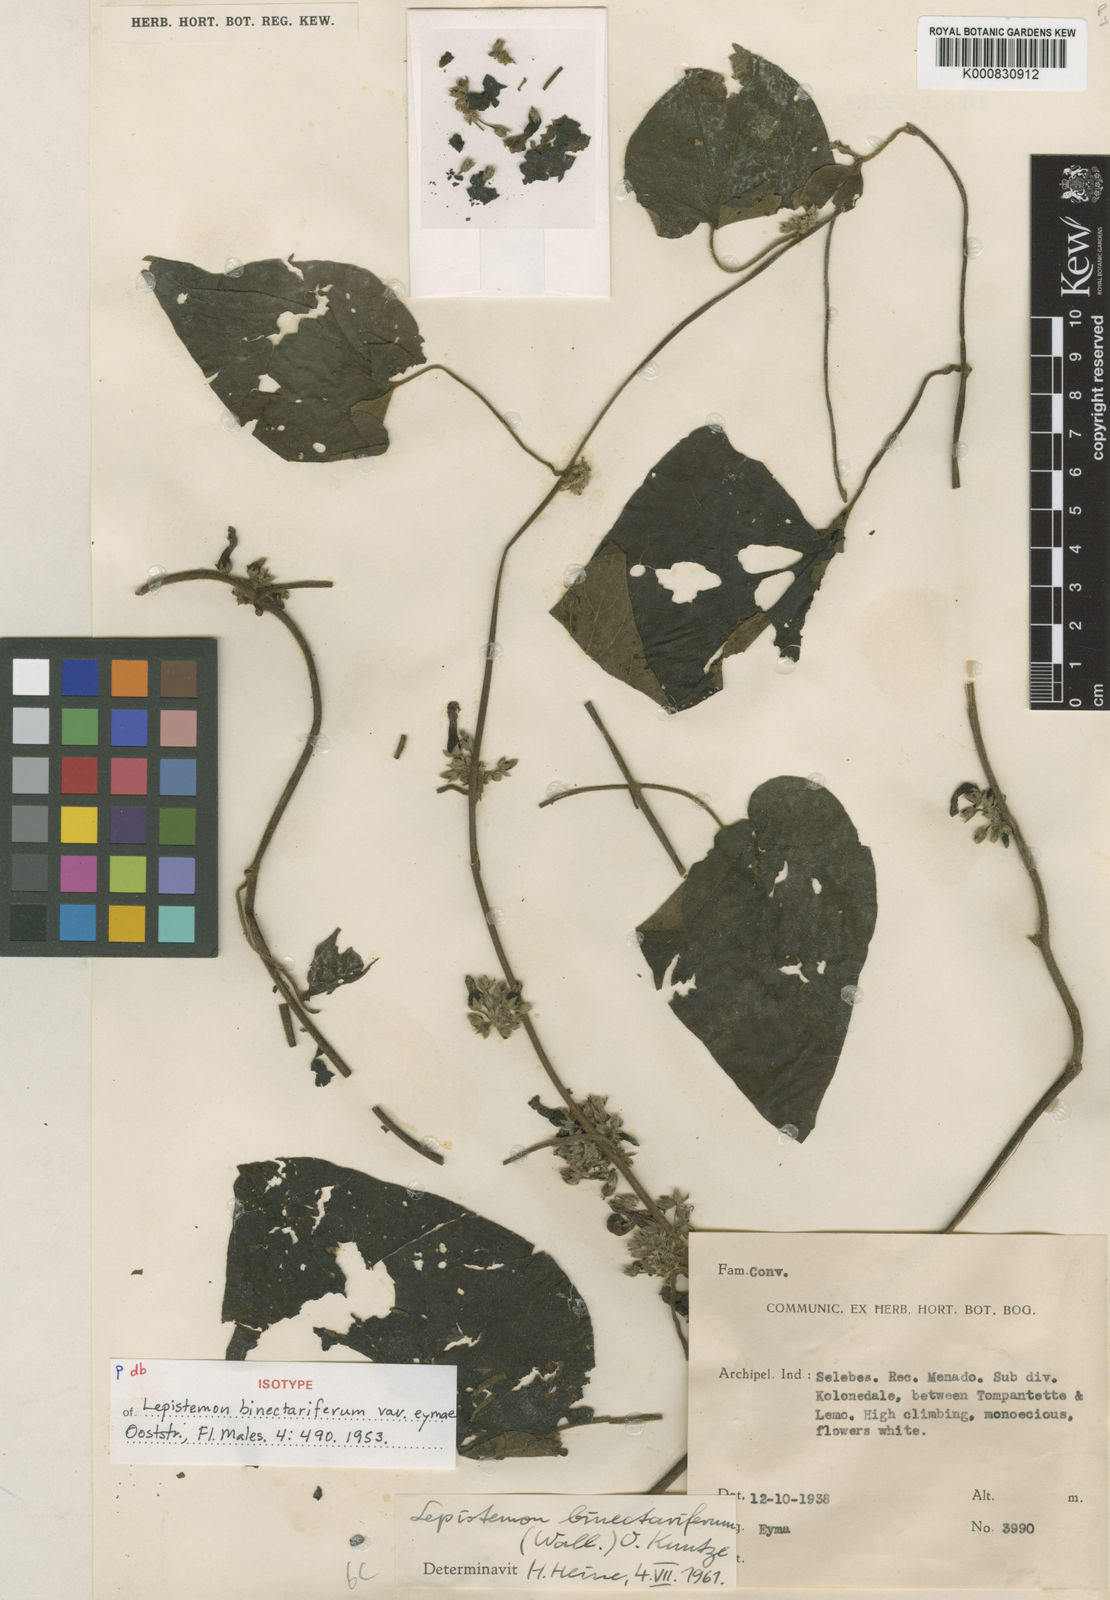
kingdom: Plantae
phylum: Tracheophyta
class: Magnoliopsida
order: Solanales
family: Convolvulaceae
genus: Lepistemon
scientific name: Lepistemon binectarifer
